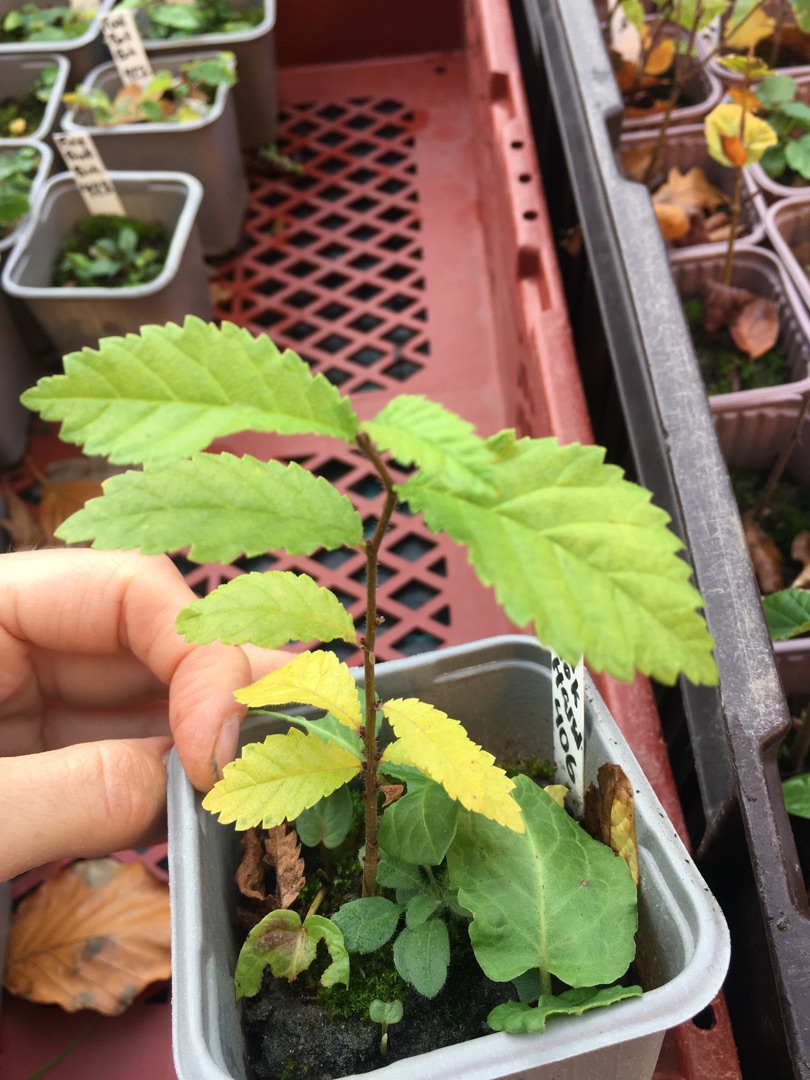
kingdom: Plantae
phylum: Tracheophyta
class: Magnoliopsida
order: Rosales
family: Ulmaceae
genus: Ulmus
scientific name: Ulmus
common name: Elmeslægten
